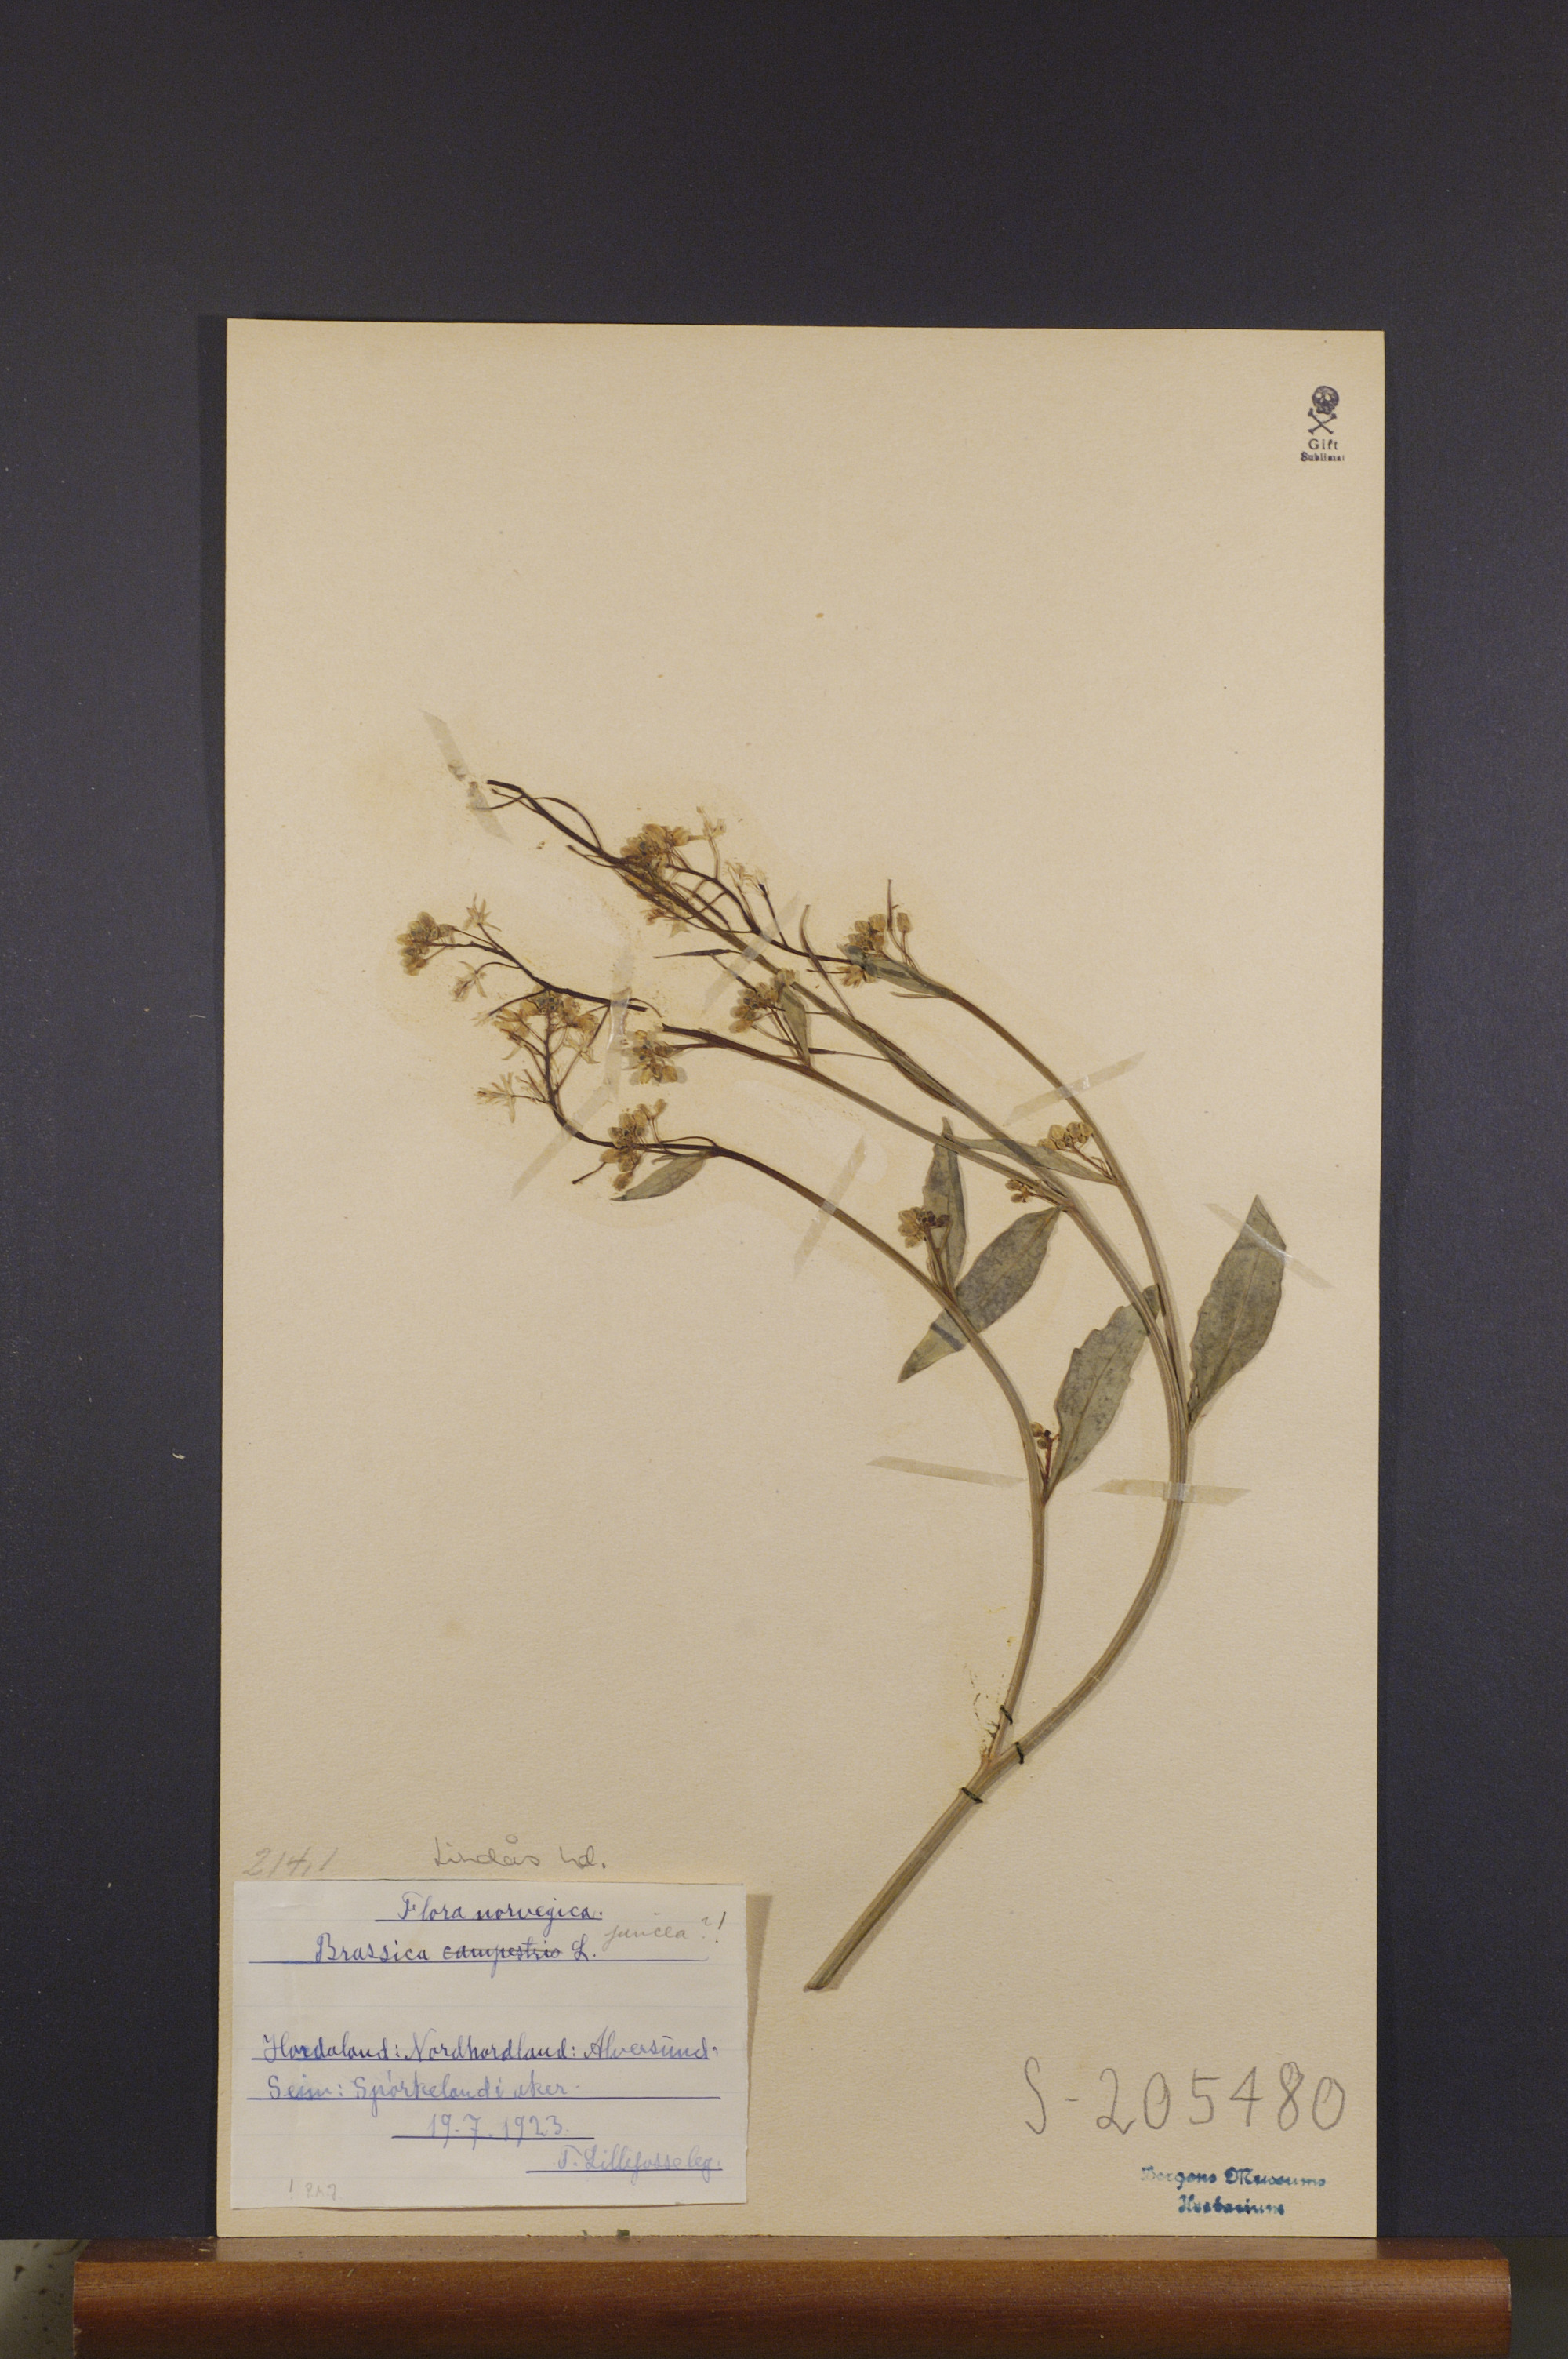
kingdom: Plantae
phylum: Tracheophyta
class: Magnoliopsida
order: Brassicales
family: Brassicaceae
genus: Brassica
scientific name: Brassica juncea
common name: Brown mustard
